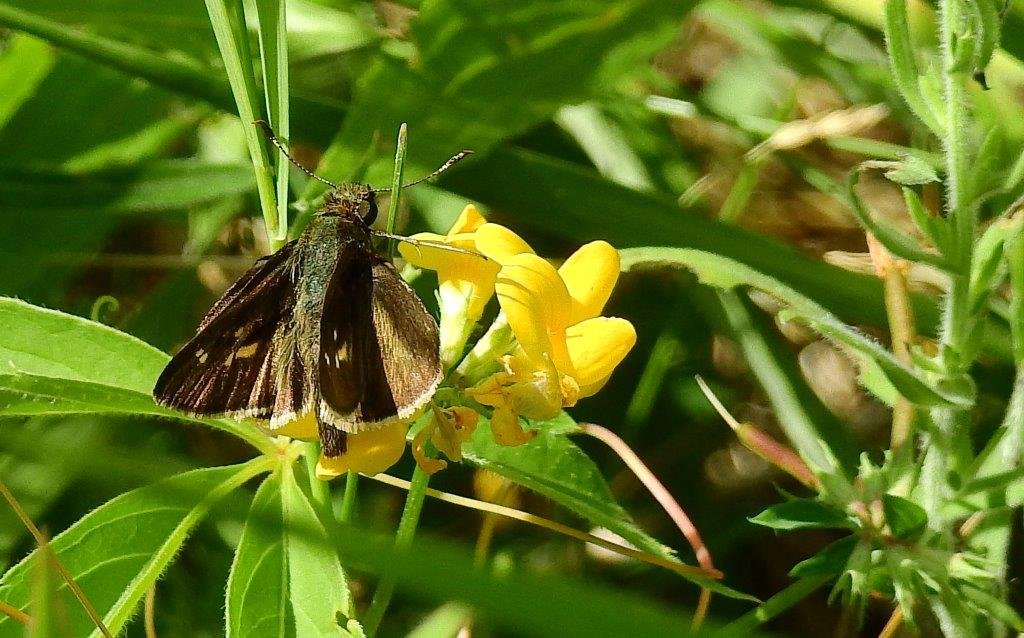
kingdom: Animalia
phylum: Arthropoda
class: Insecta
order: Lepidoptera
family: Hesperiidae
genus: Vernia
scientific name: Vernia verna
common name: Little Glassywing
